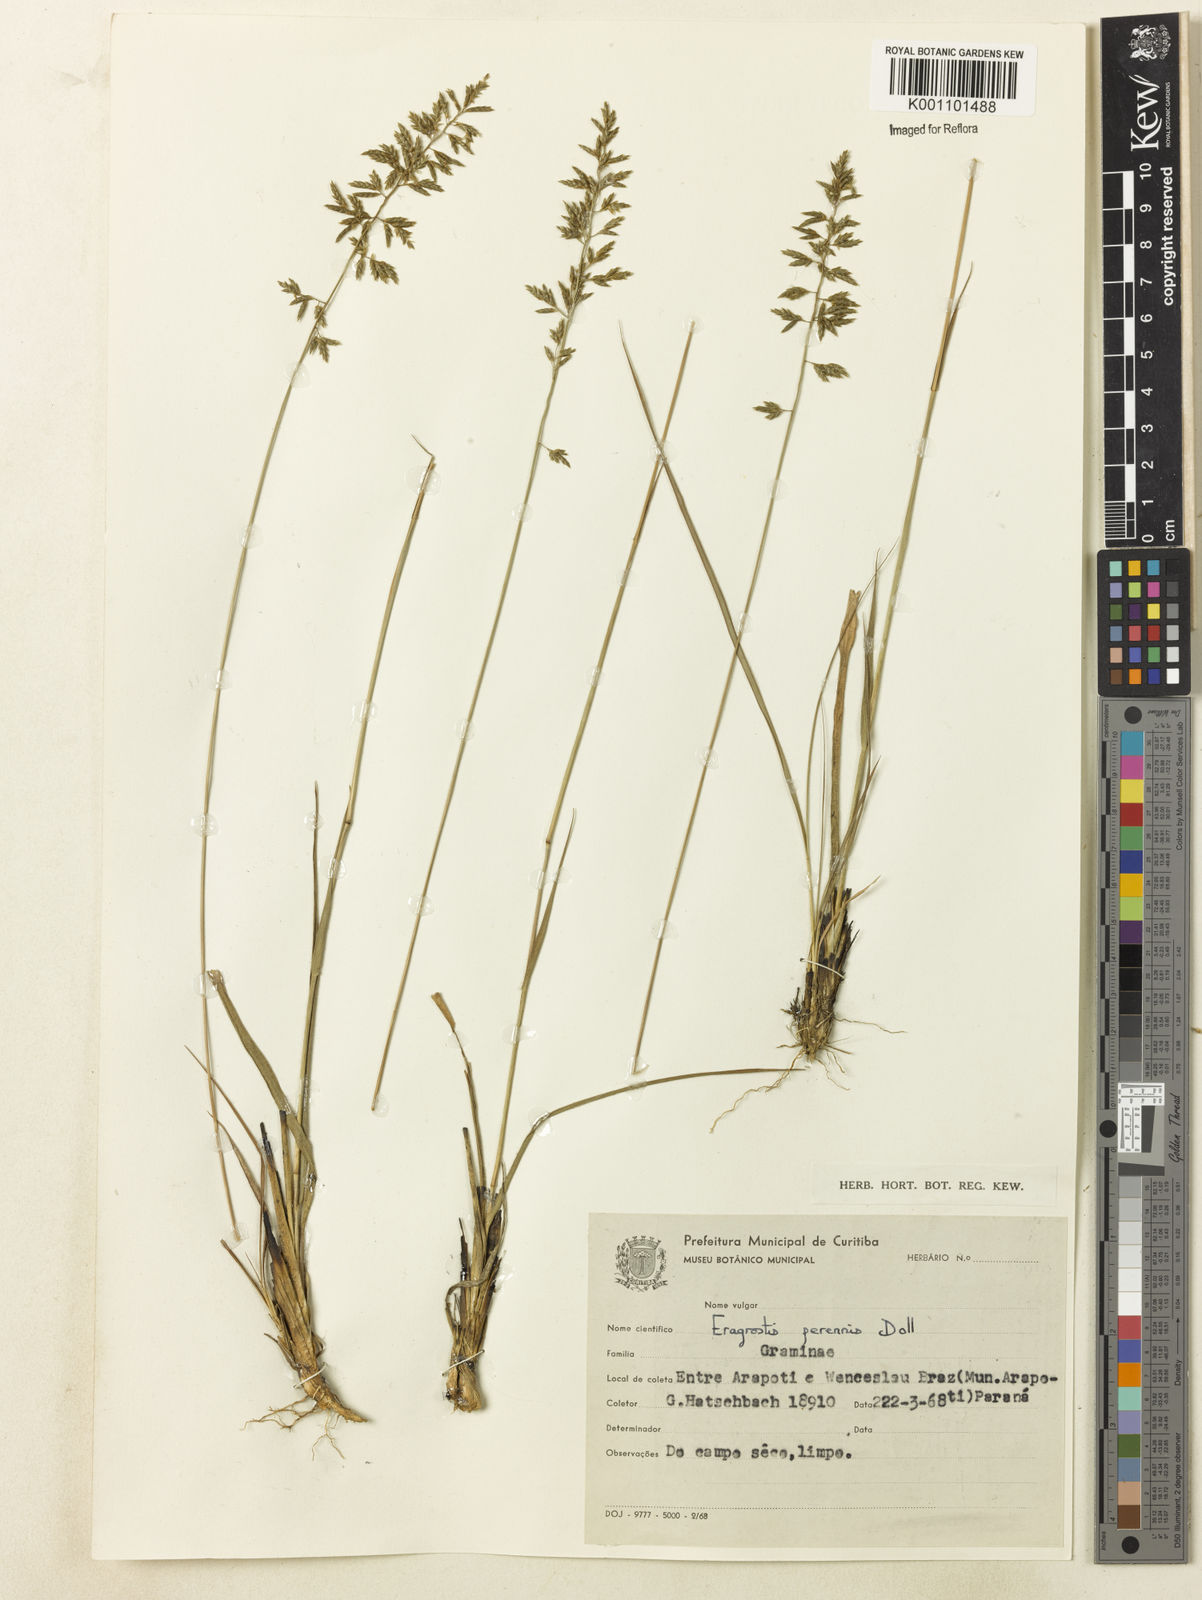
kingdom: Plantae
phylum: Tracheophyta
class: Liliopsida
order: Poales
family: Poaceae
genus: Eragrostis
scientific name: Eragrostis
